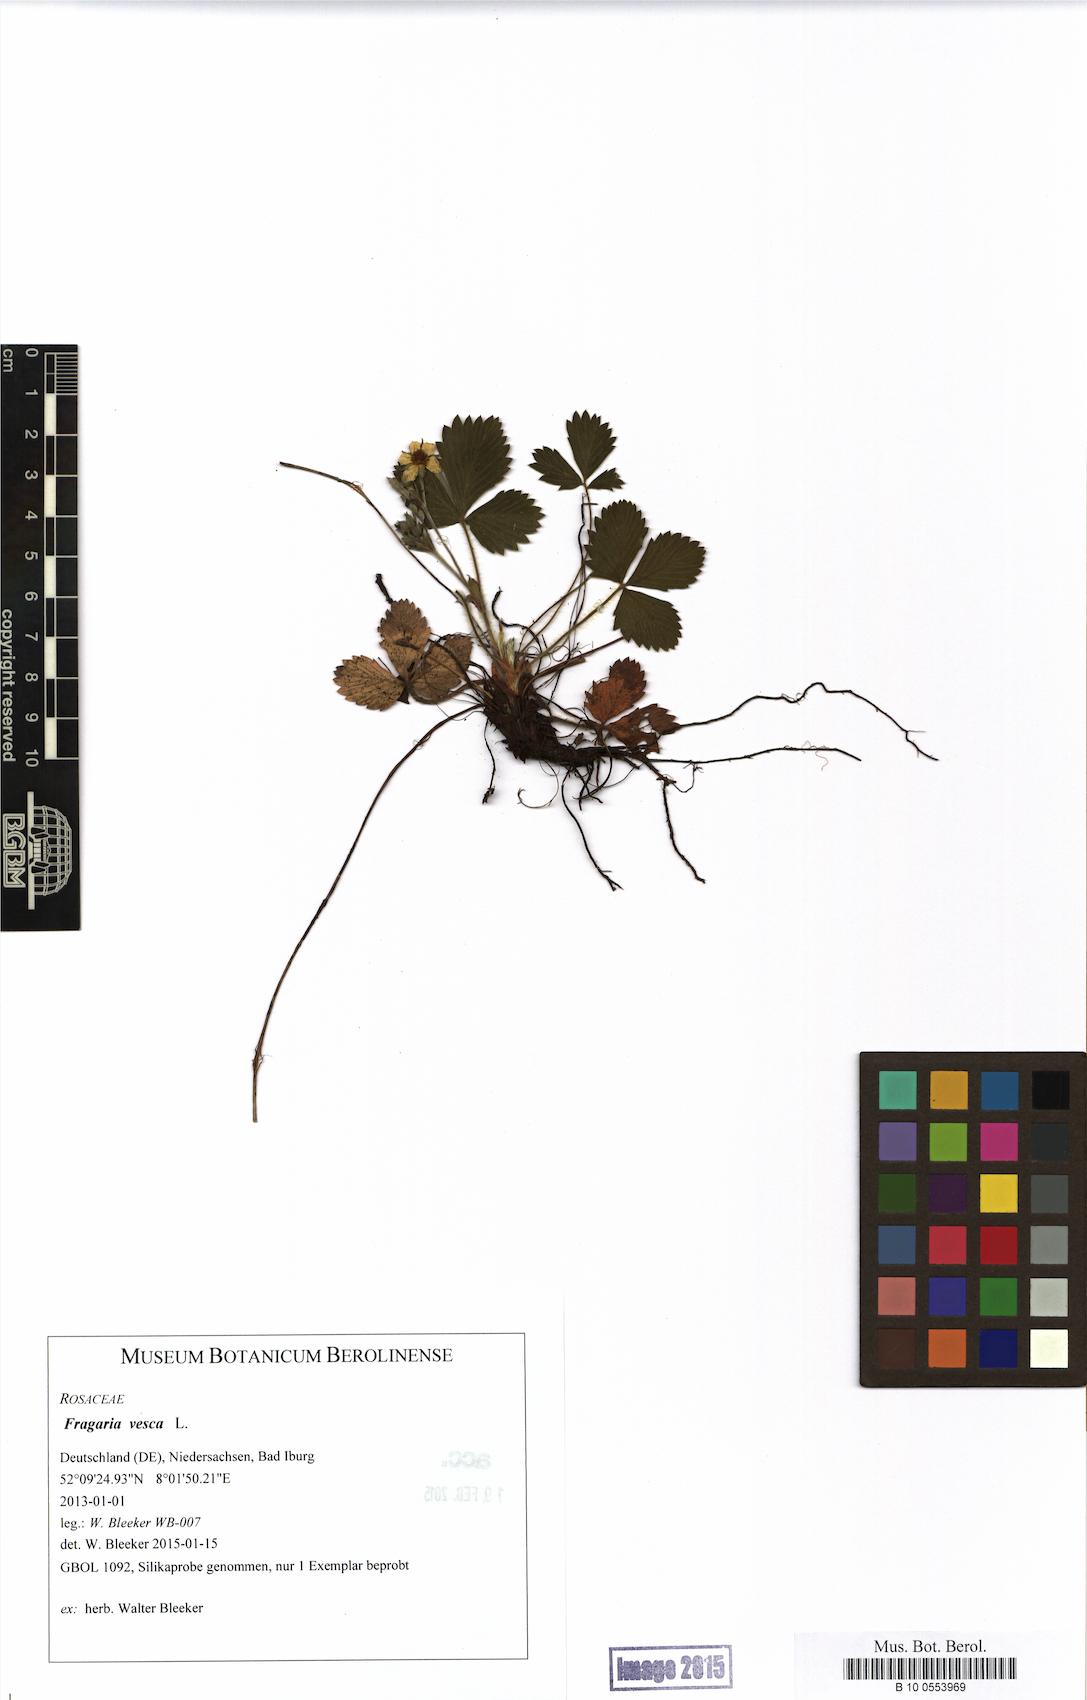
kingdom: Plantae
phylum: Tracheophyta
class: Magnoliopsida
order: Rosales
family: Rosaceae
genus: Fragaria
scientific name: Fragaria vesca
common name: Wild strawberry
